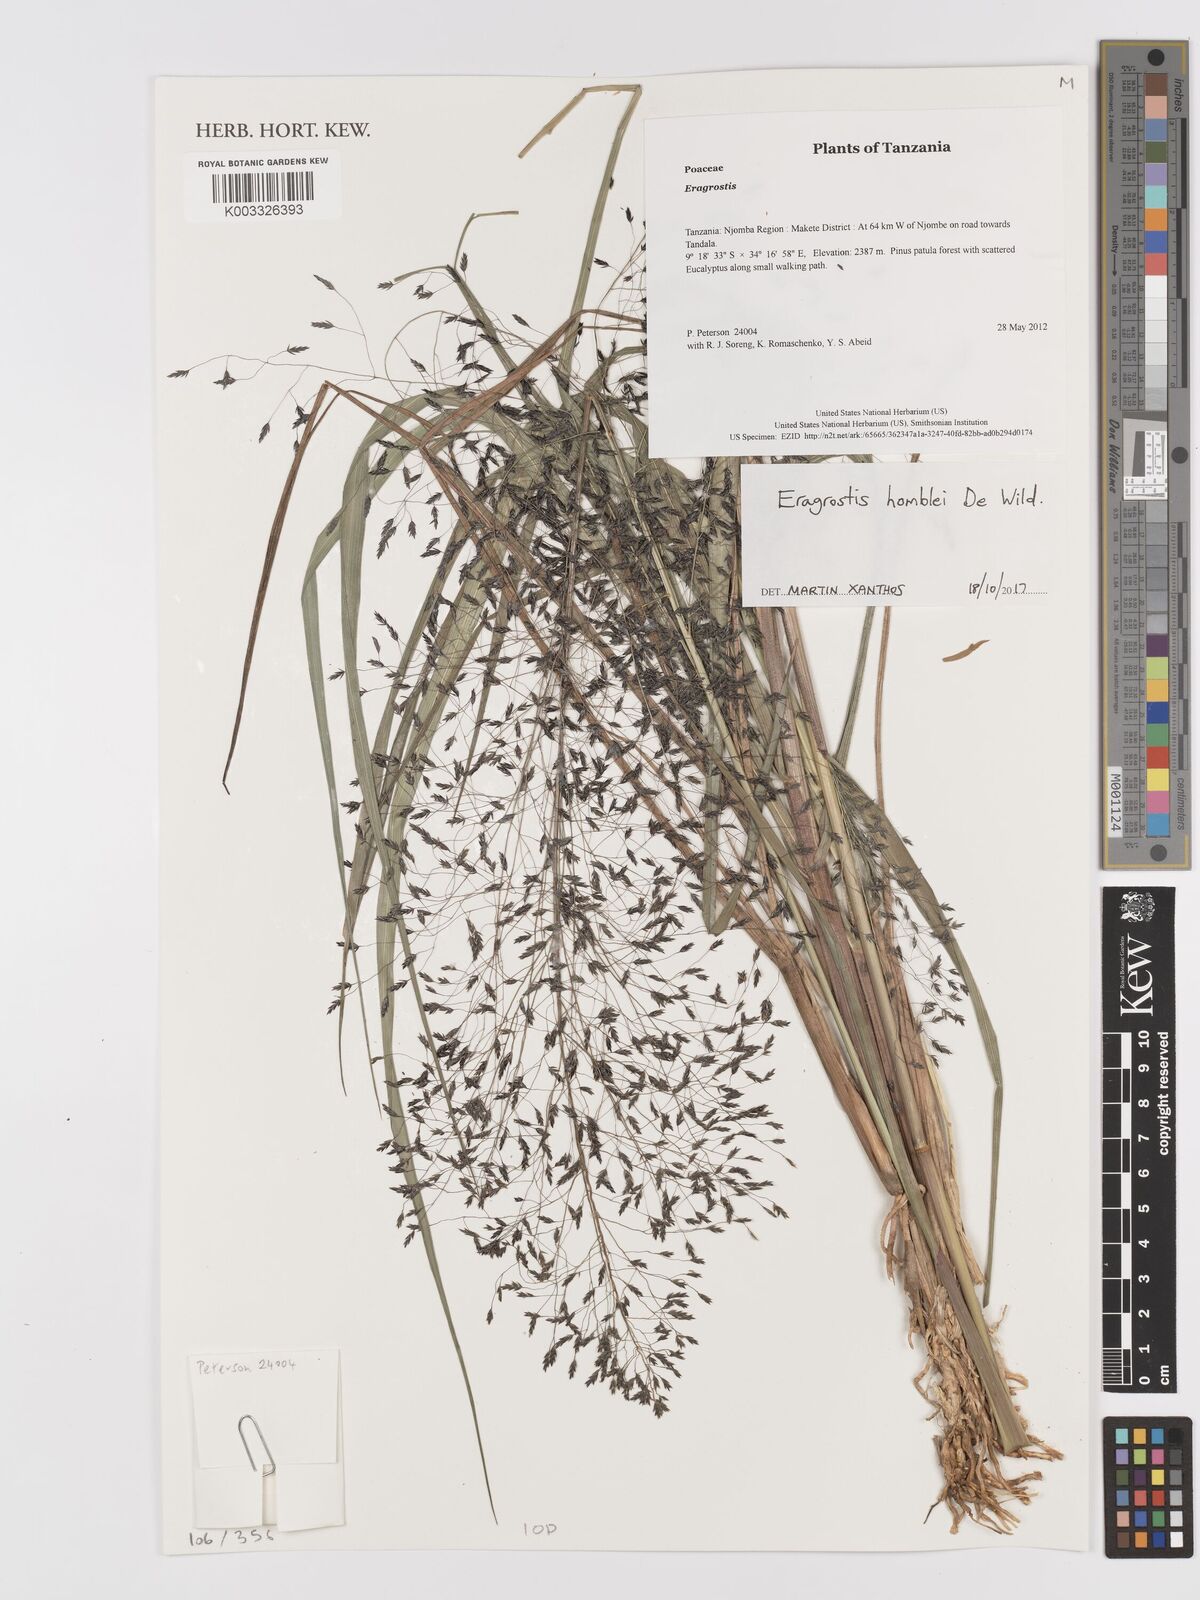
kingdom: Plantae
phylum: Tracheophyta
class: Liliopsida
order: Poales
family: Poaceae
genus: Eragrostis
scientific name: Eragrostis homblei
